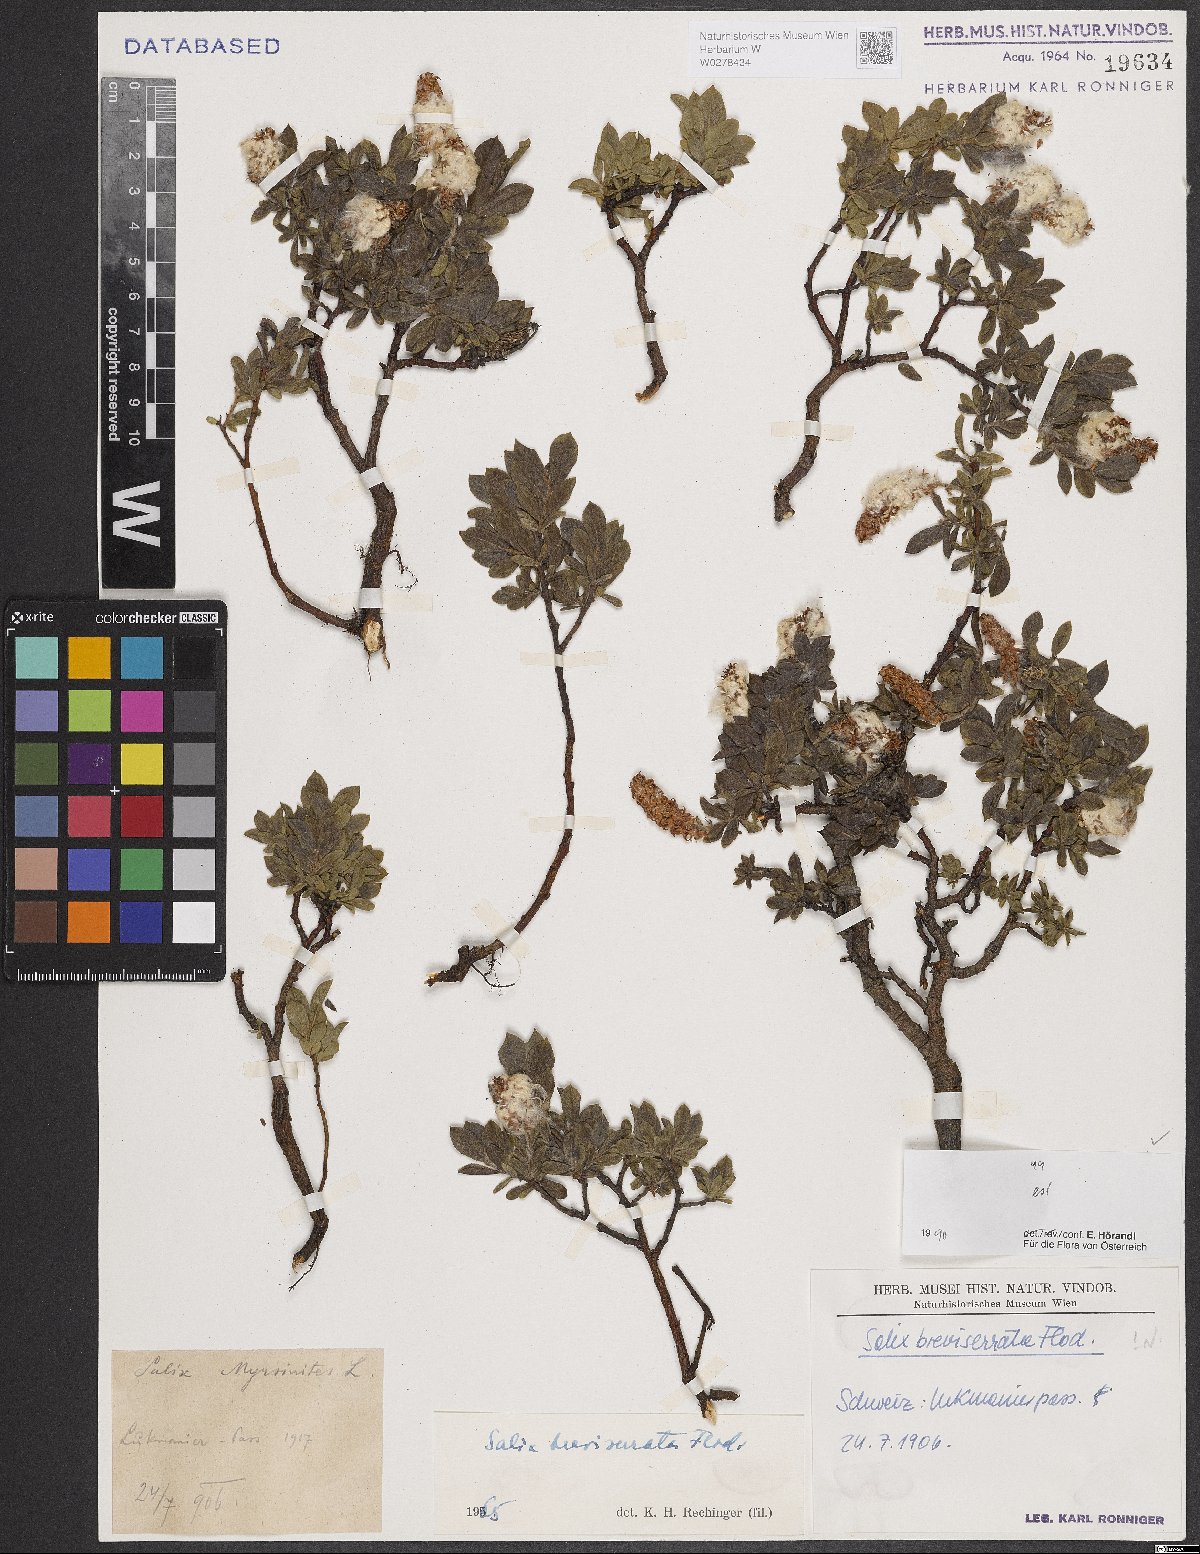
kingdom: Plantae
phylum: Tracheophyta
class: Magnoliopsida
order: Malpighiales
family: Salicaceae
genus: Salix
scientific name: Salix breviserrata
